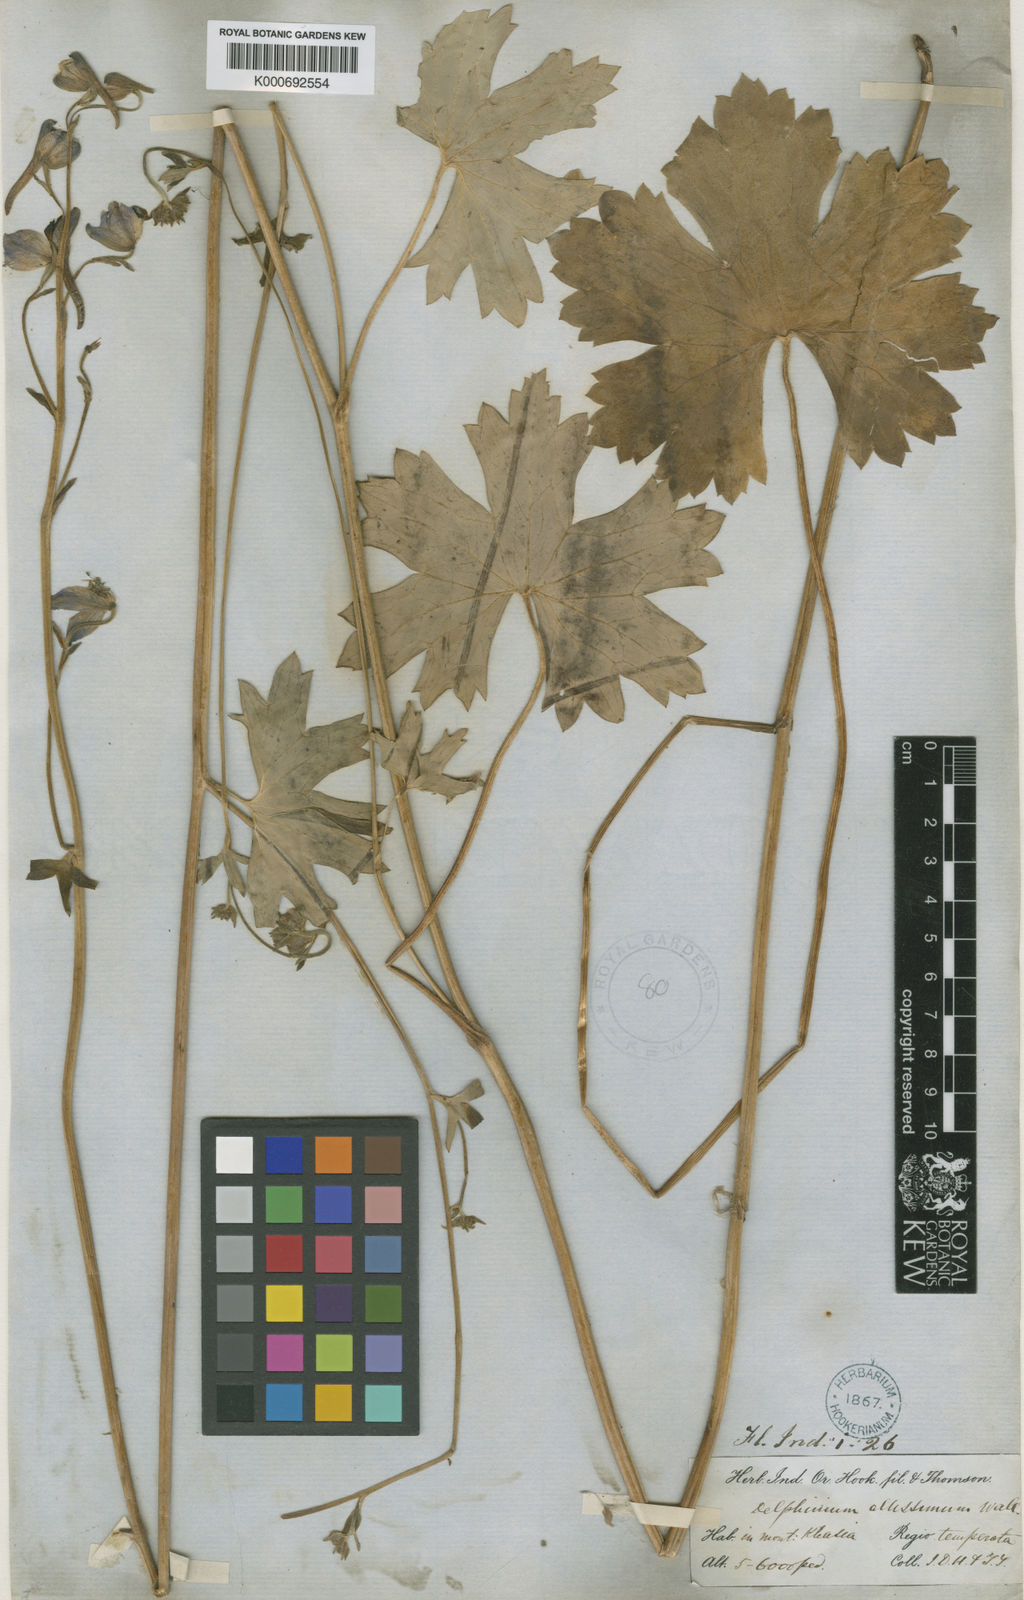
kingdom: Plantae
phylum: Tracheophyta
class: Magnoliopsida
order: Ranunculales
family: Ranunculaceae
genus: Delphinium
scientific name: Delphinium stapeliosmum
